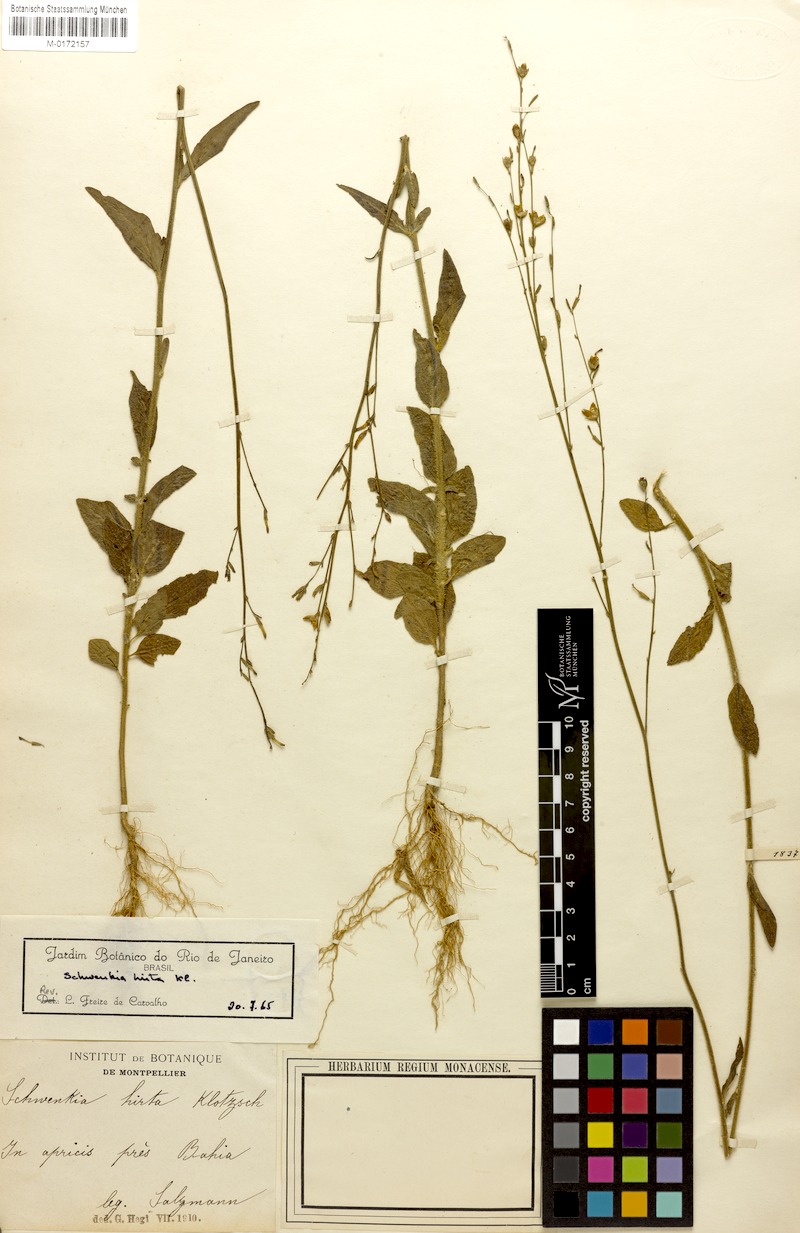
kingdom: Plantae
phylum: Tracheophyta
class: Magnoliopsida
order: Solanales
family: Solanaceae
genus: Schwenckia
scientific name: Schwenckia americana
